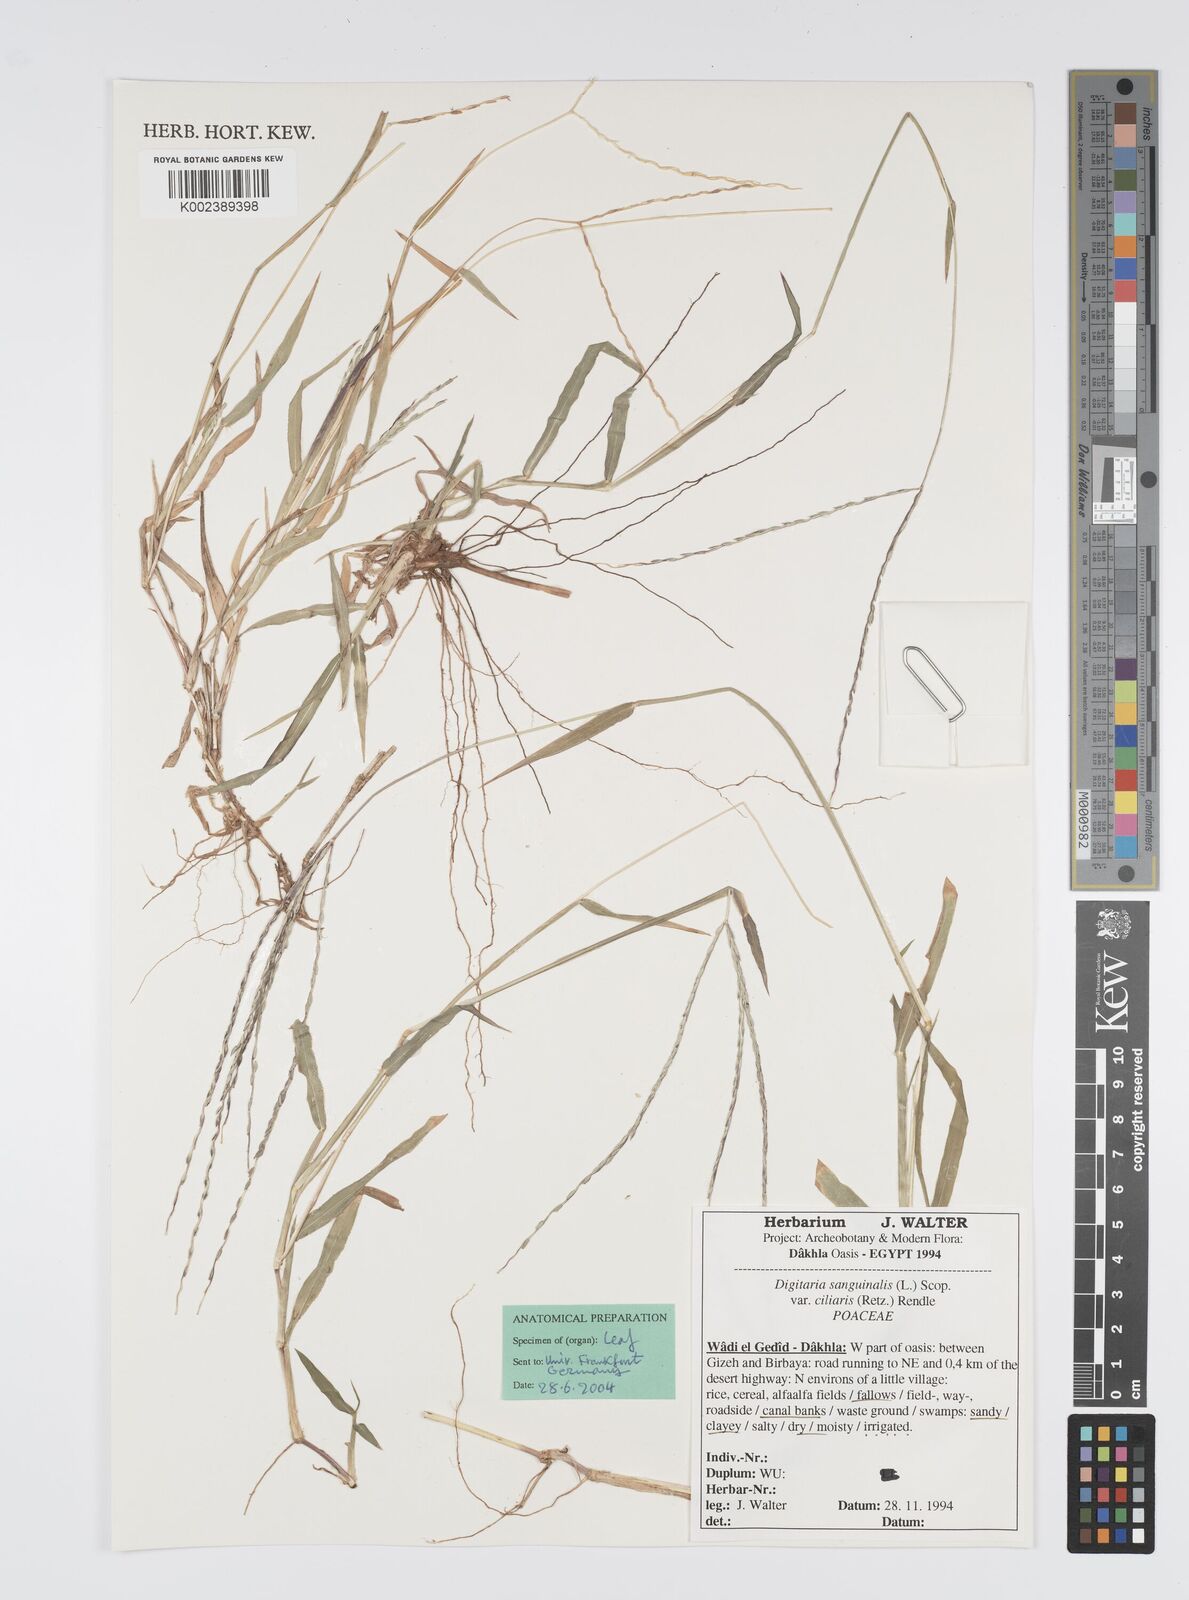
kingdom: Plantae
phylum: Tracheophyta
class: Liliopsida
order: Poales
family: Poaceae
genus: Digitaria
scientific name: Digitaria sanguinalis
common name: Hairy crabgrass
